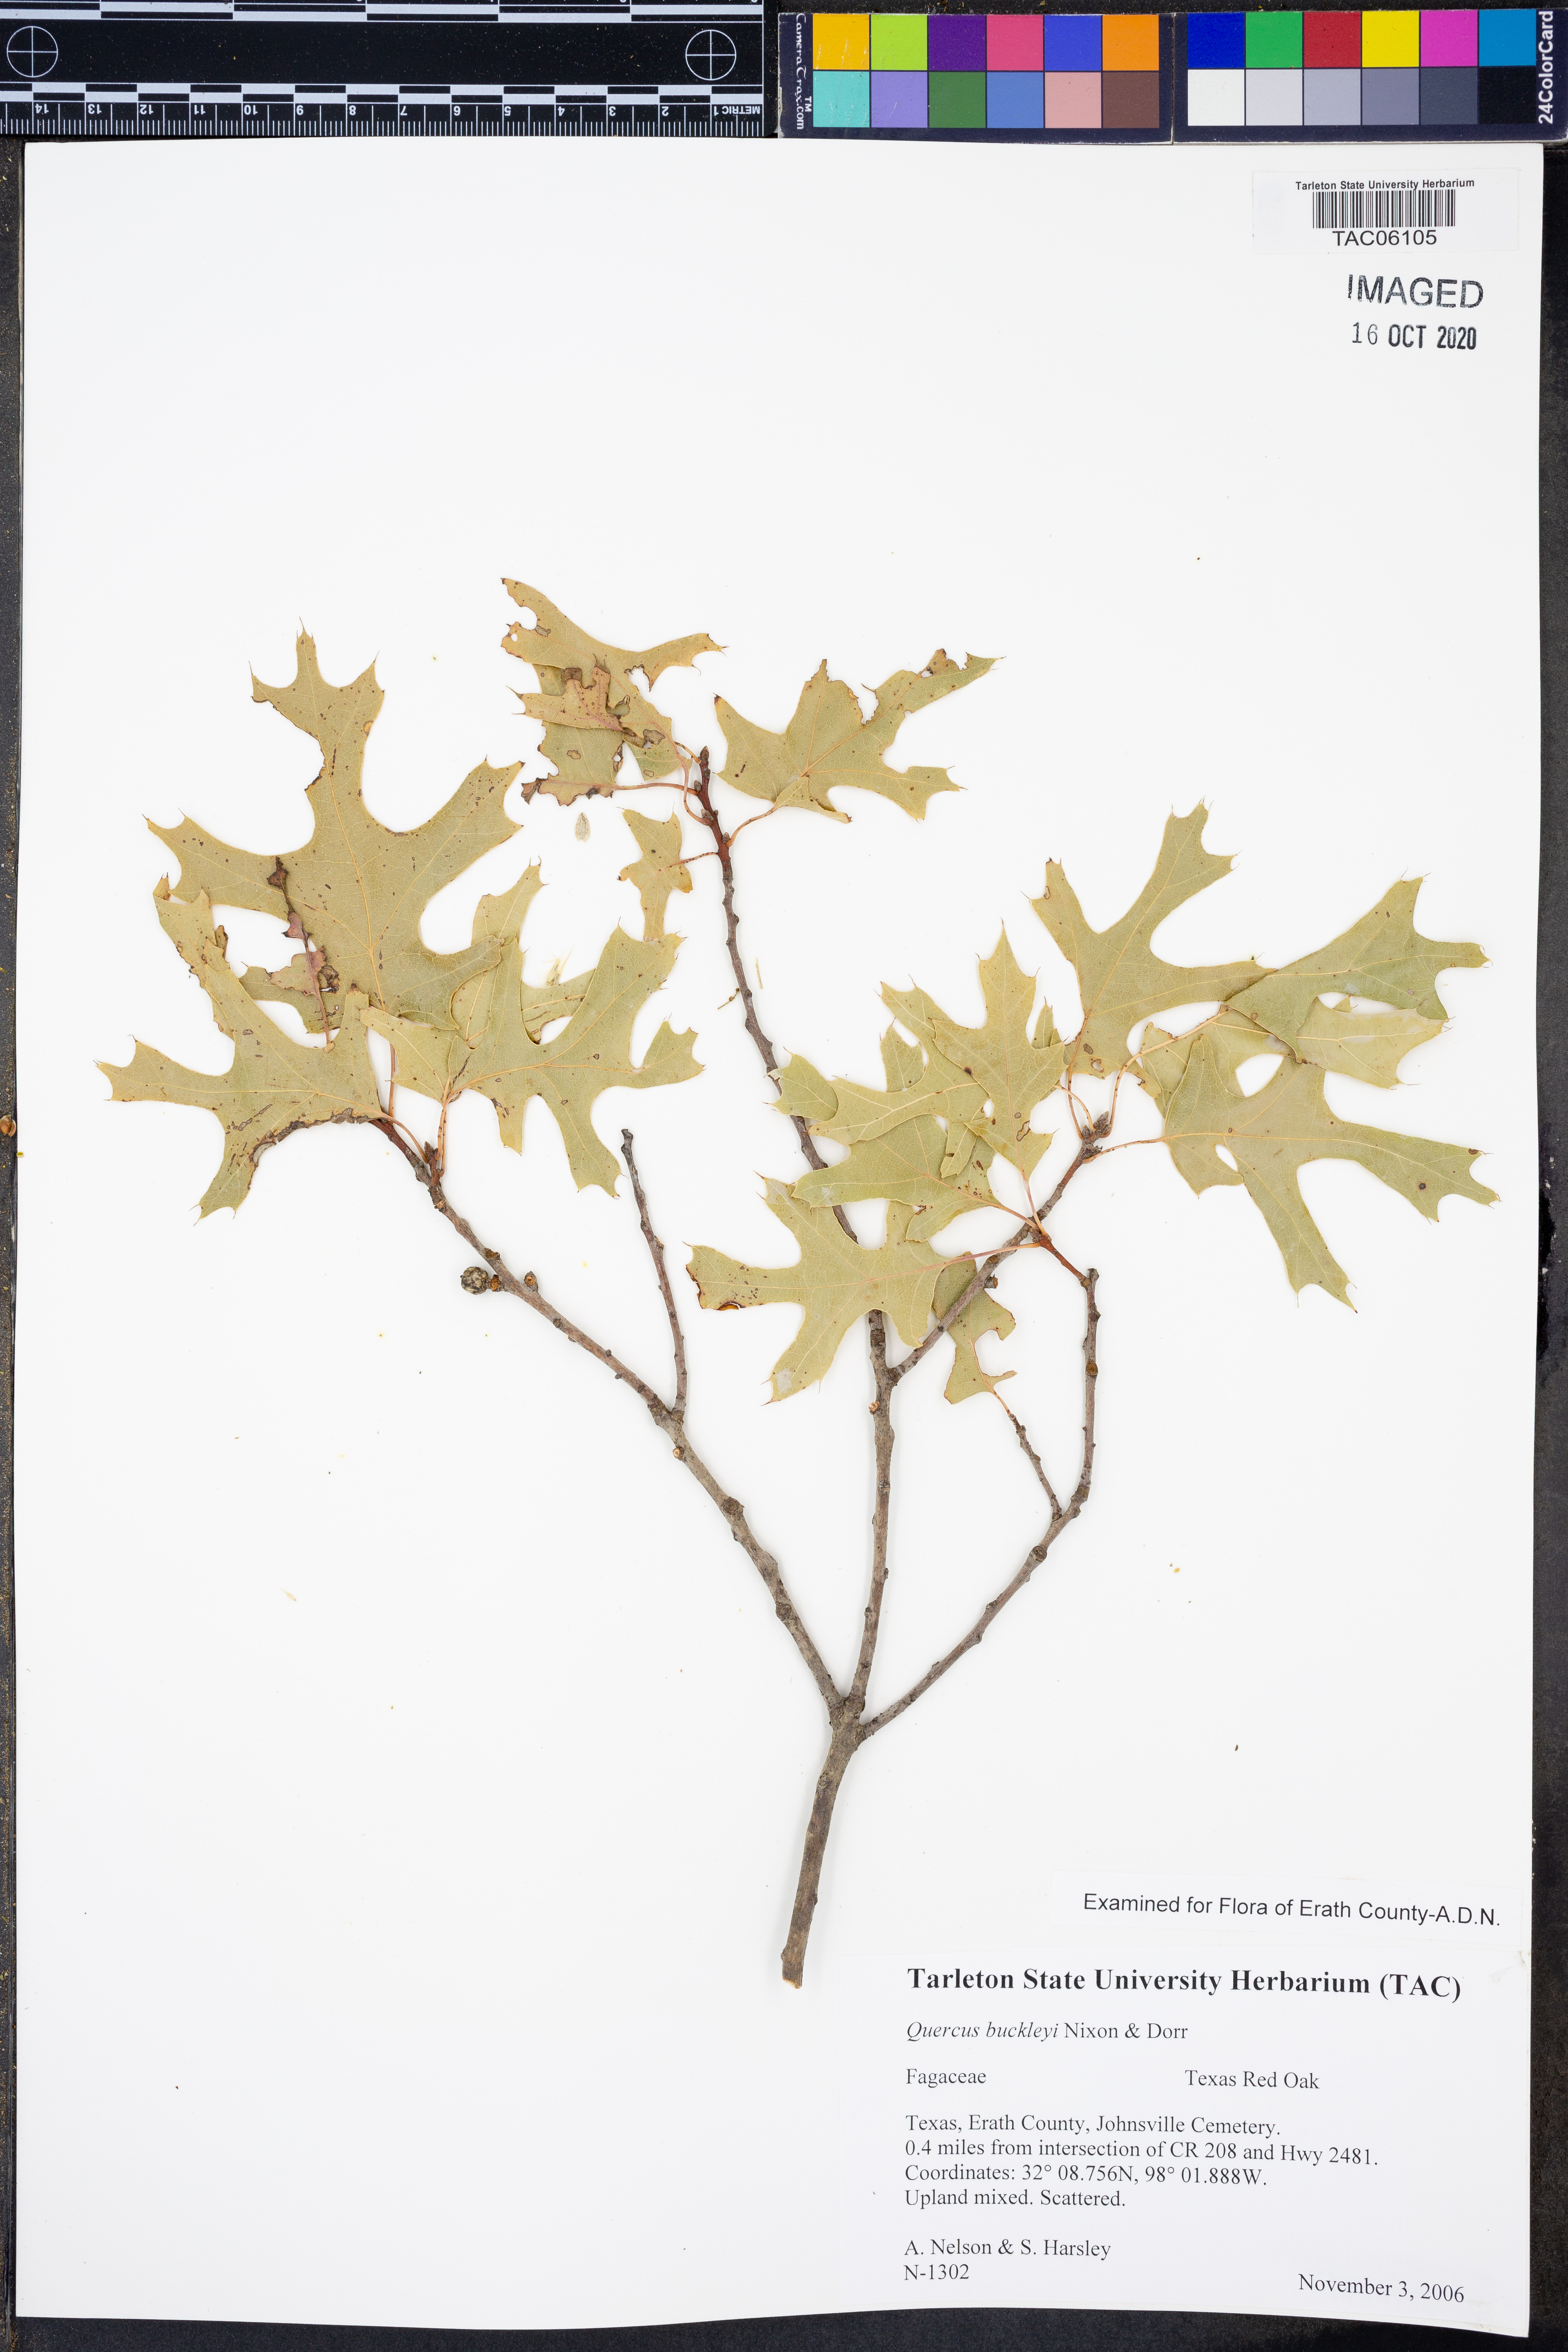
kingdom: Plantae
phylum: Tracheophyta
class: Magnoliopsida
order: Fagales
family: Fagaceae
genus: Quercus
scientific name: Quercus buckleyi
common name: Buckley oak
